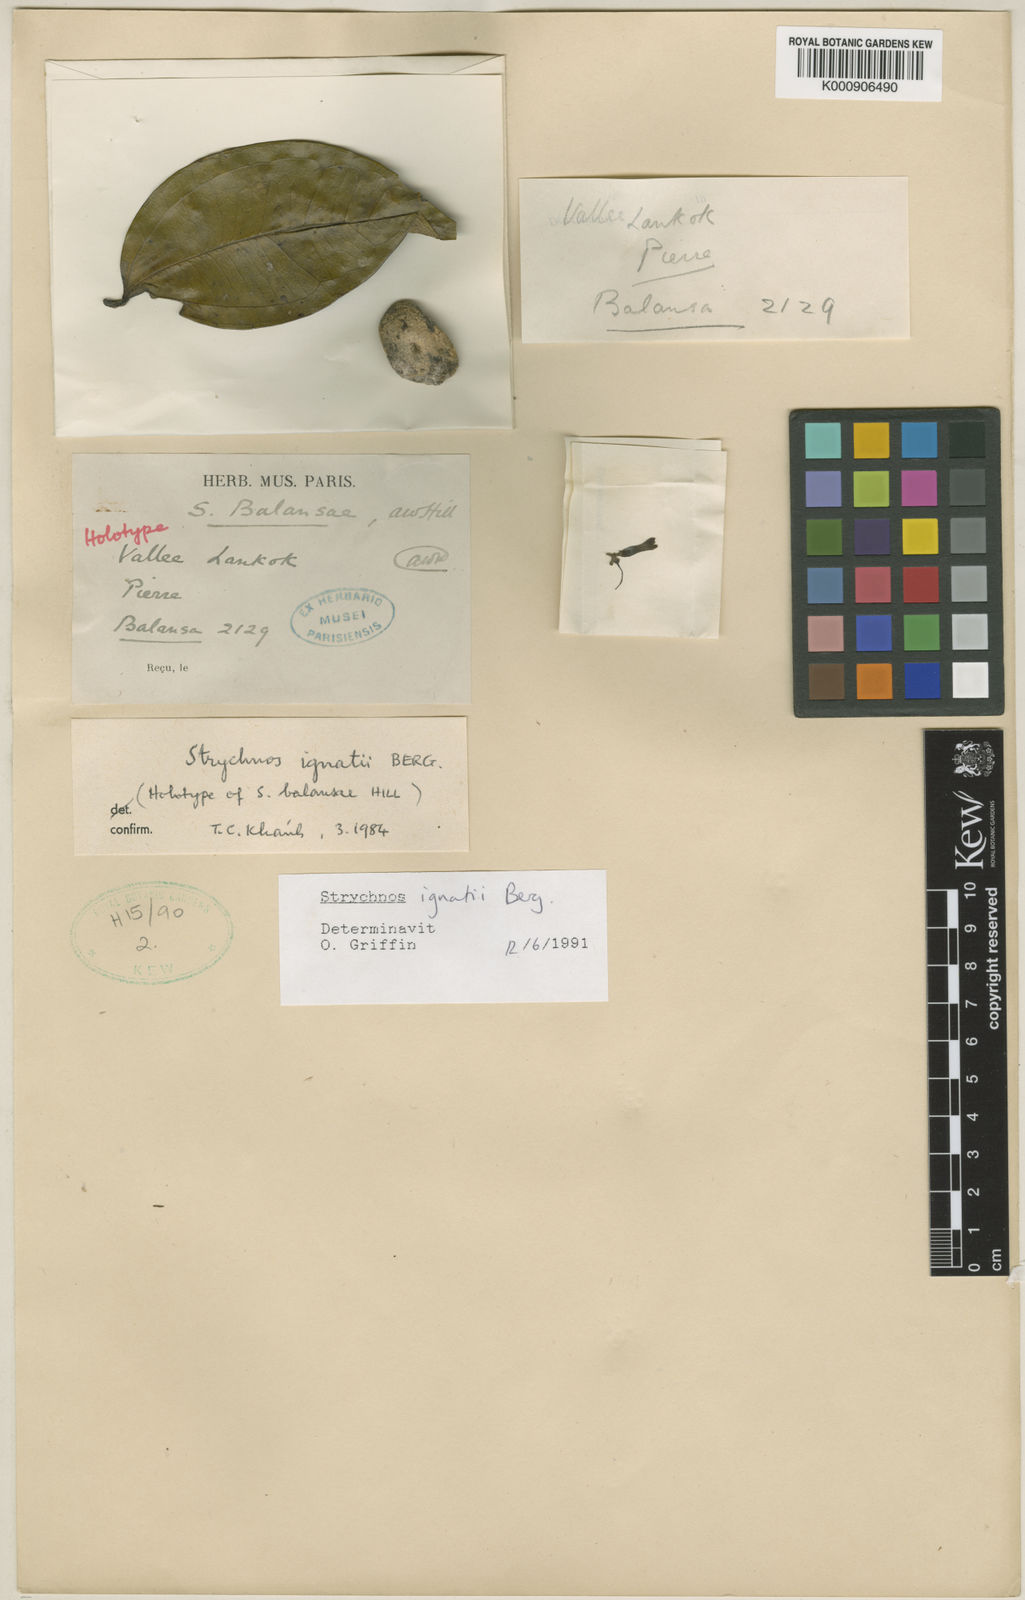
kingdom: Plantae
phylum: Tracheophyta
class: Magnoliopsida
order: Gentianales
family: Loganiaceae
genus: Strychnos
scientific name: Strychnos ignatii
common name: Ignatius-bean
